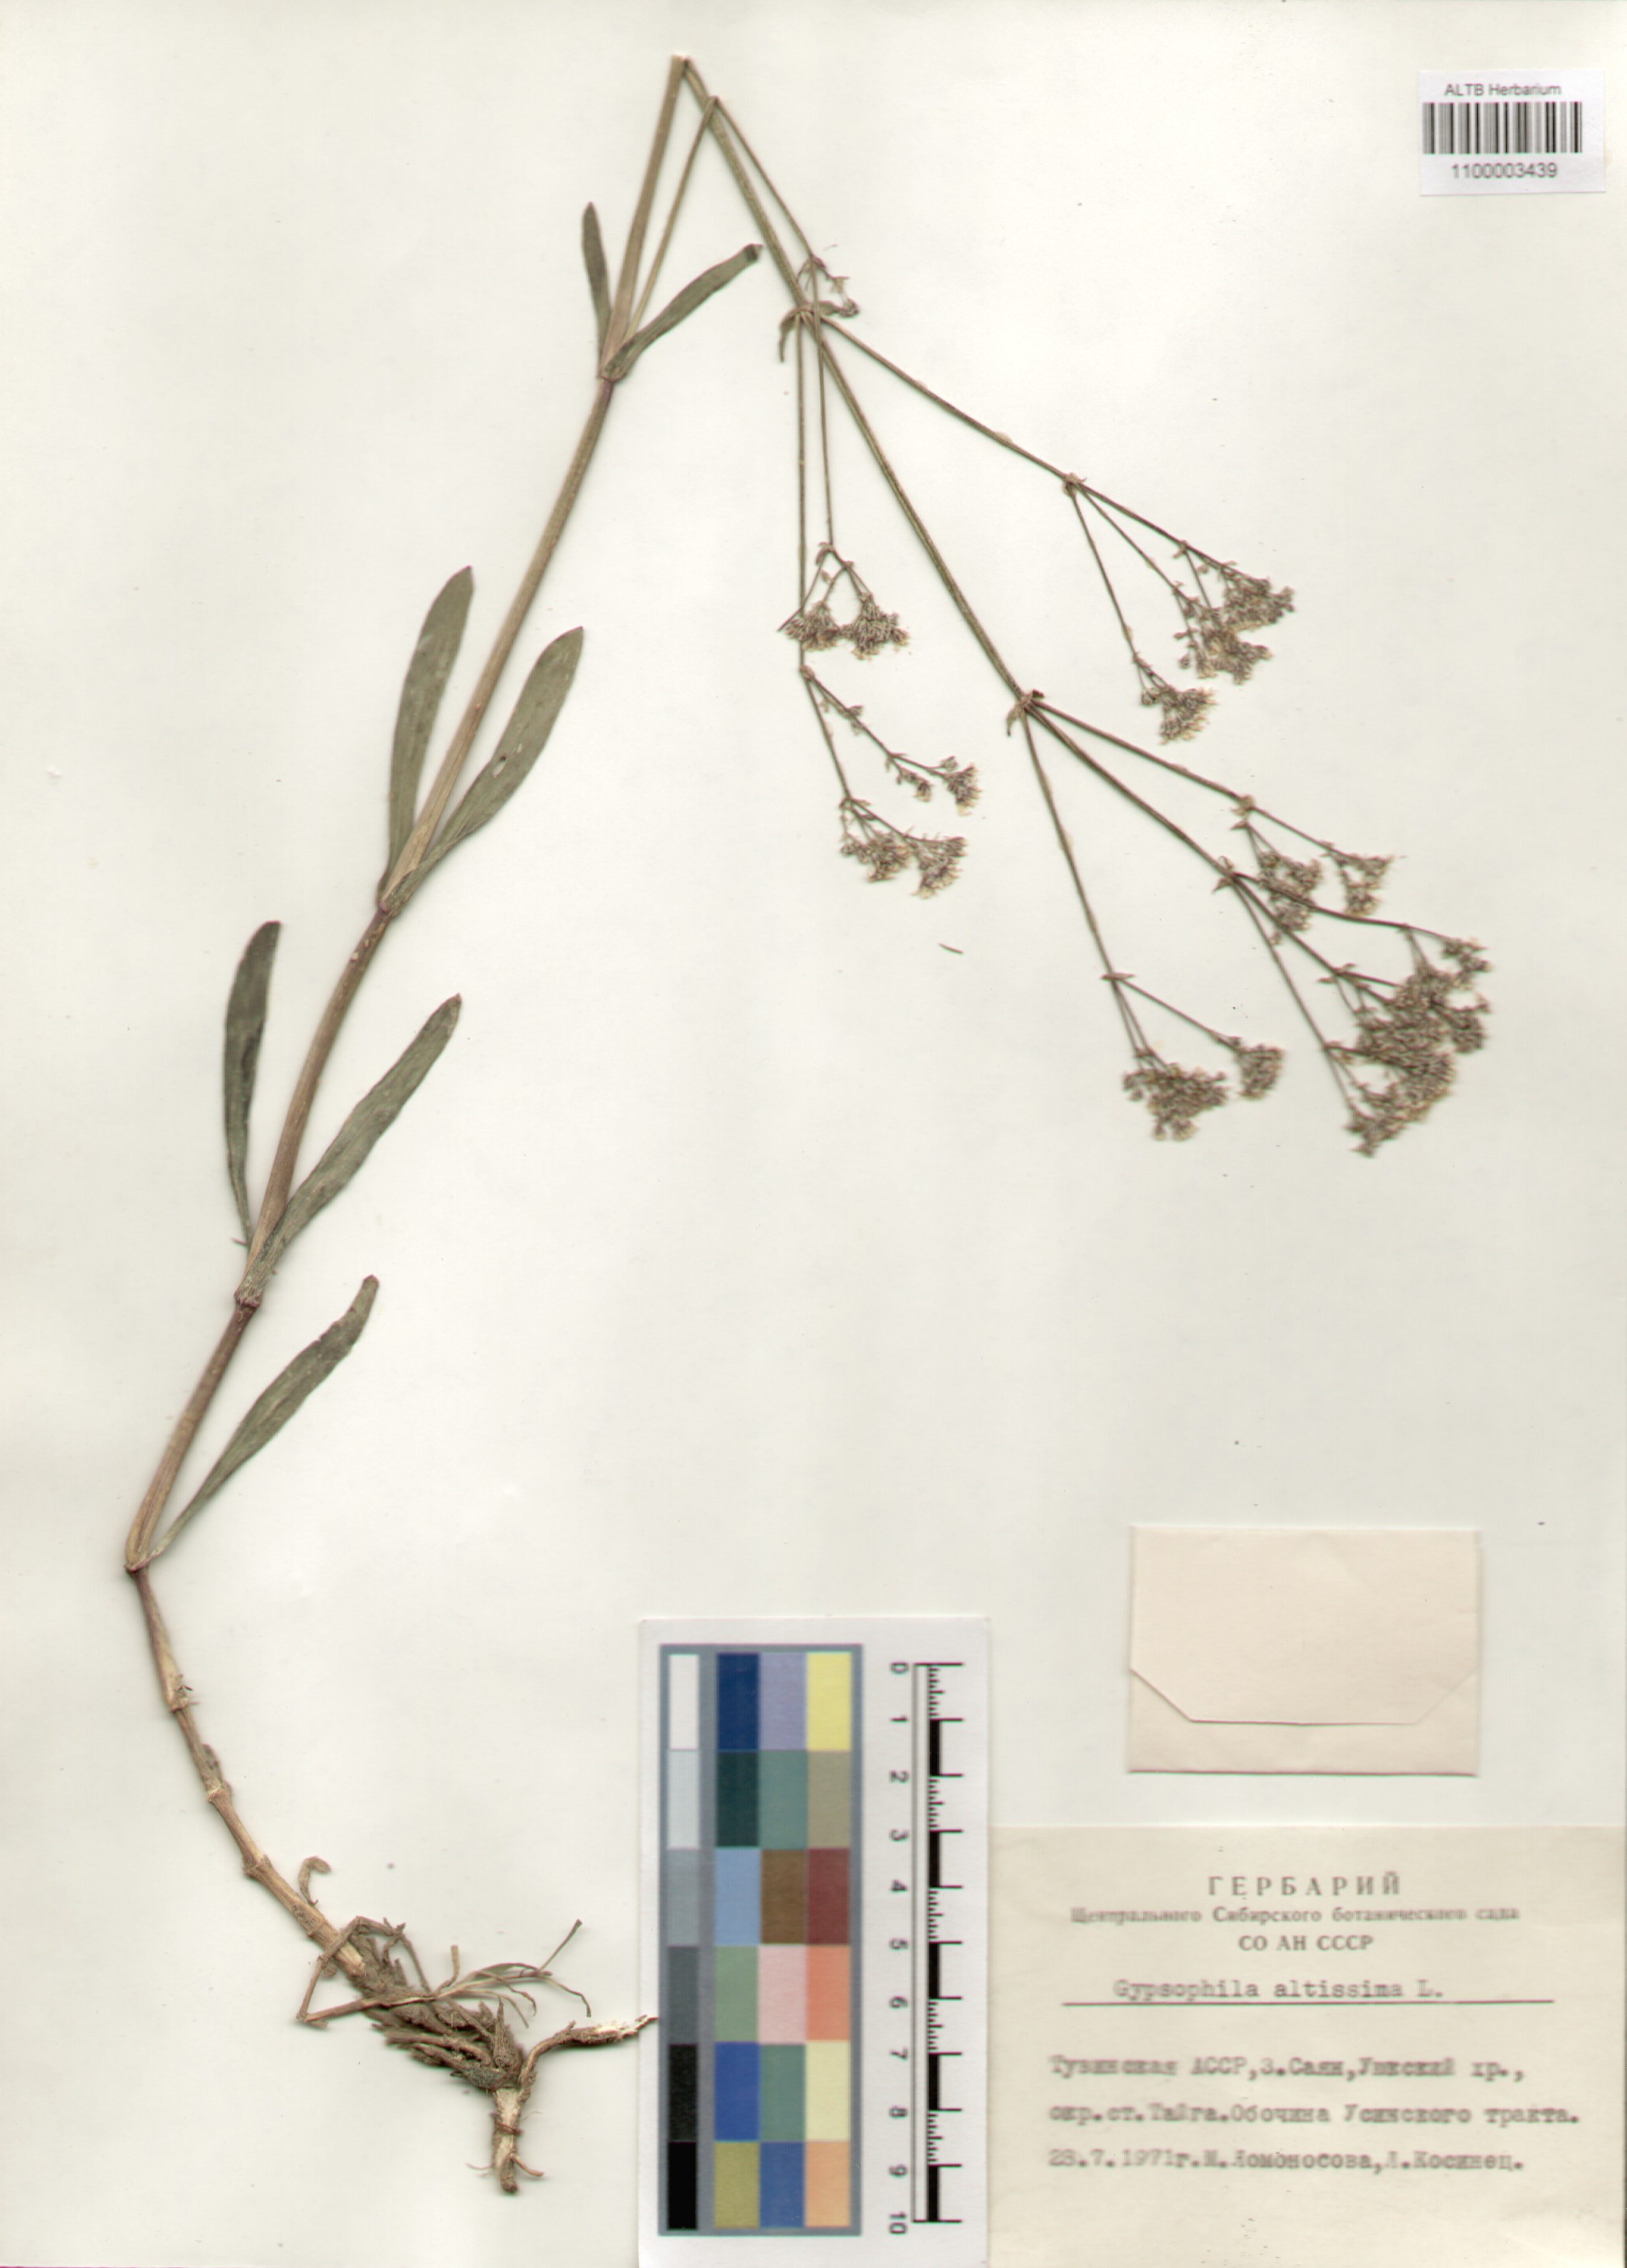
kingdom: Plantae
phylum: Tracheophyta
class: Magnoliopsida
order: Caryophyllales
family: Caryophyllaceae
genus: Gypsophila
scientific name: Gypsophila altissima
